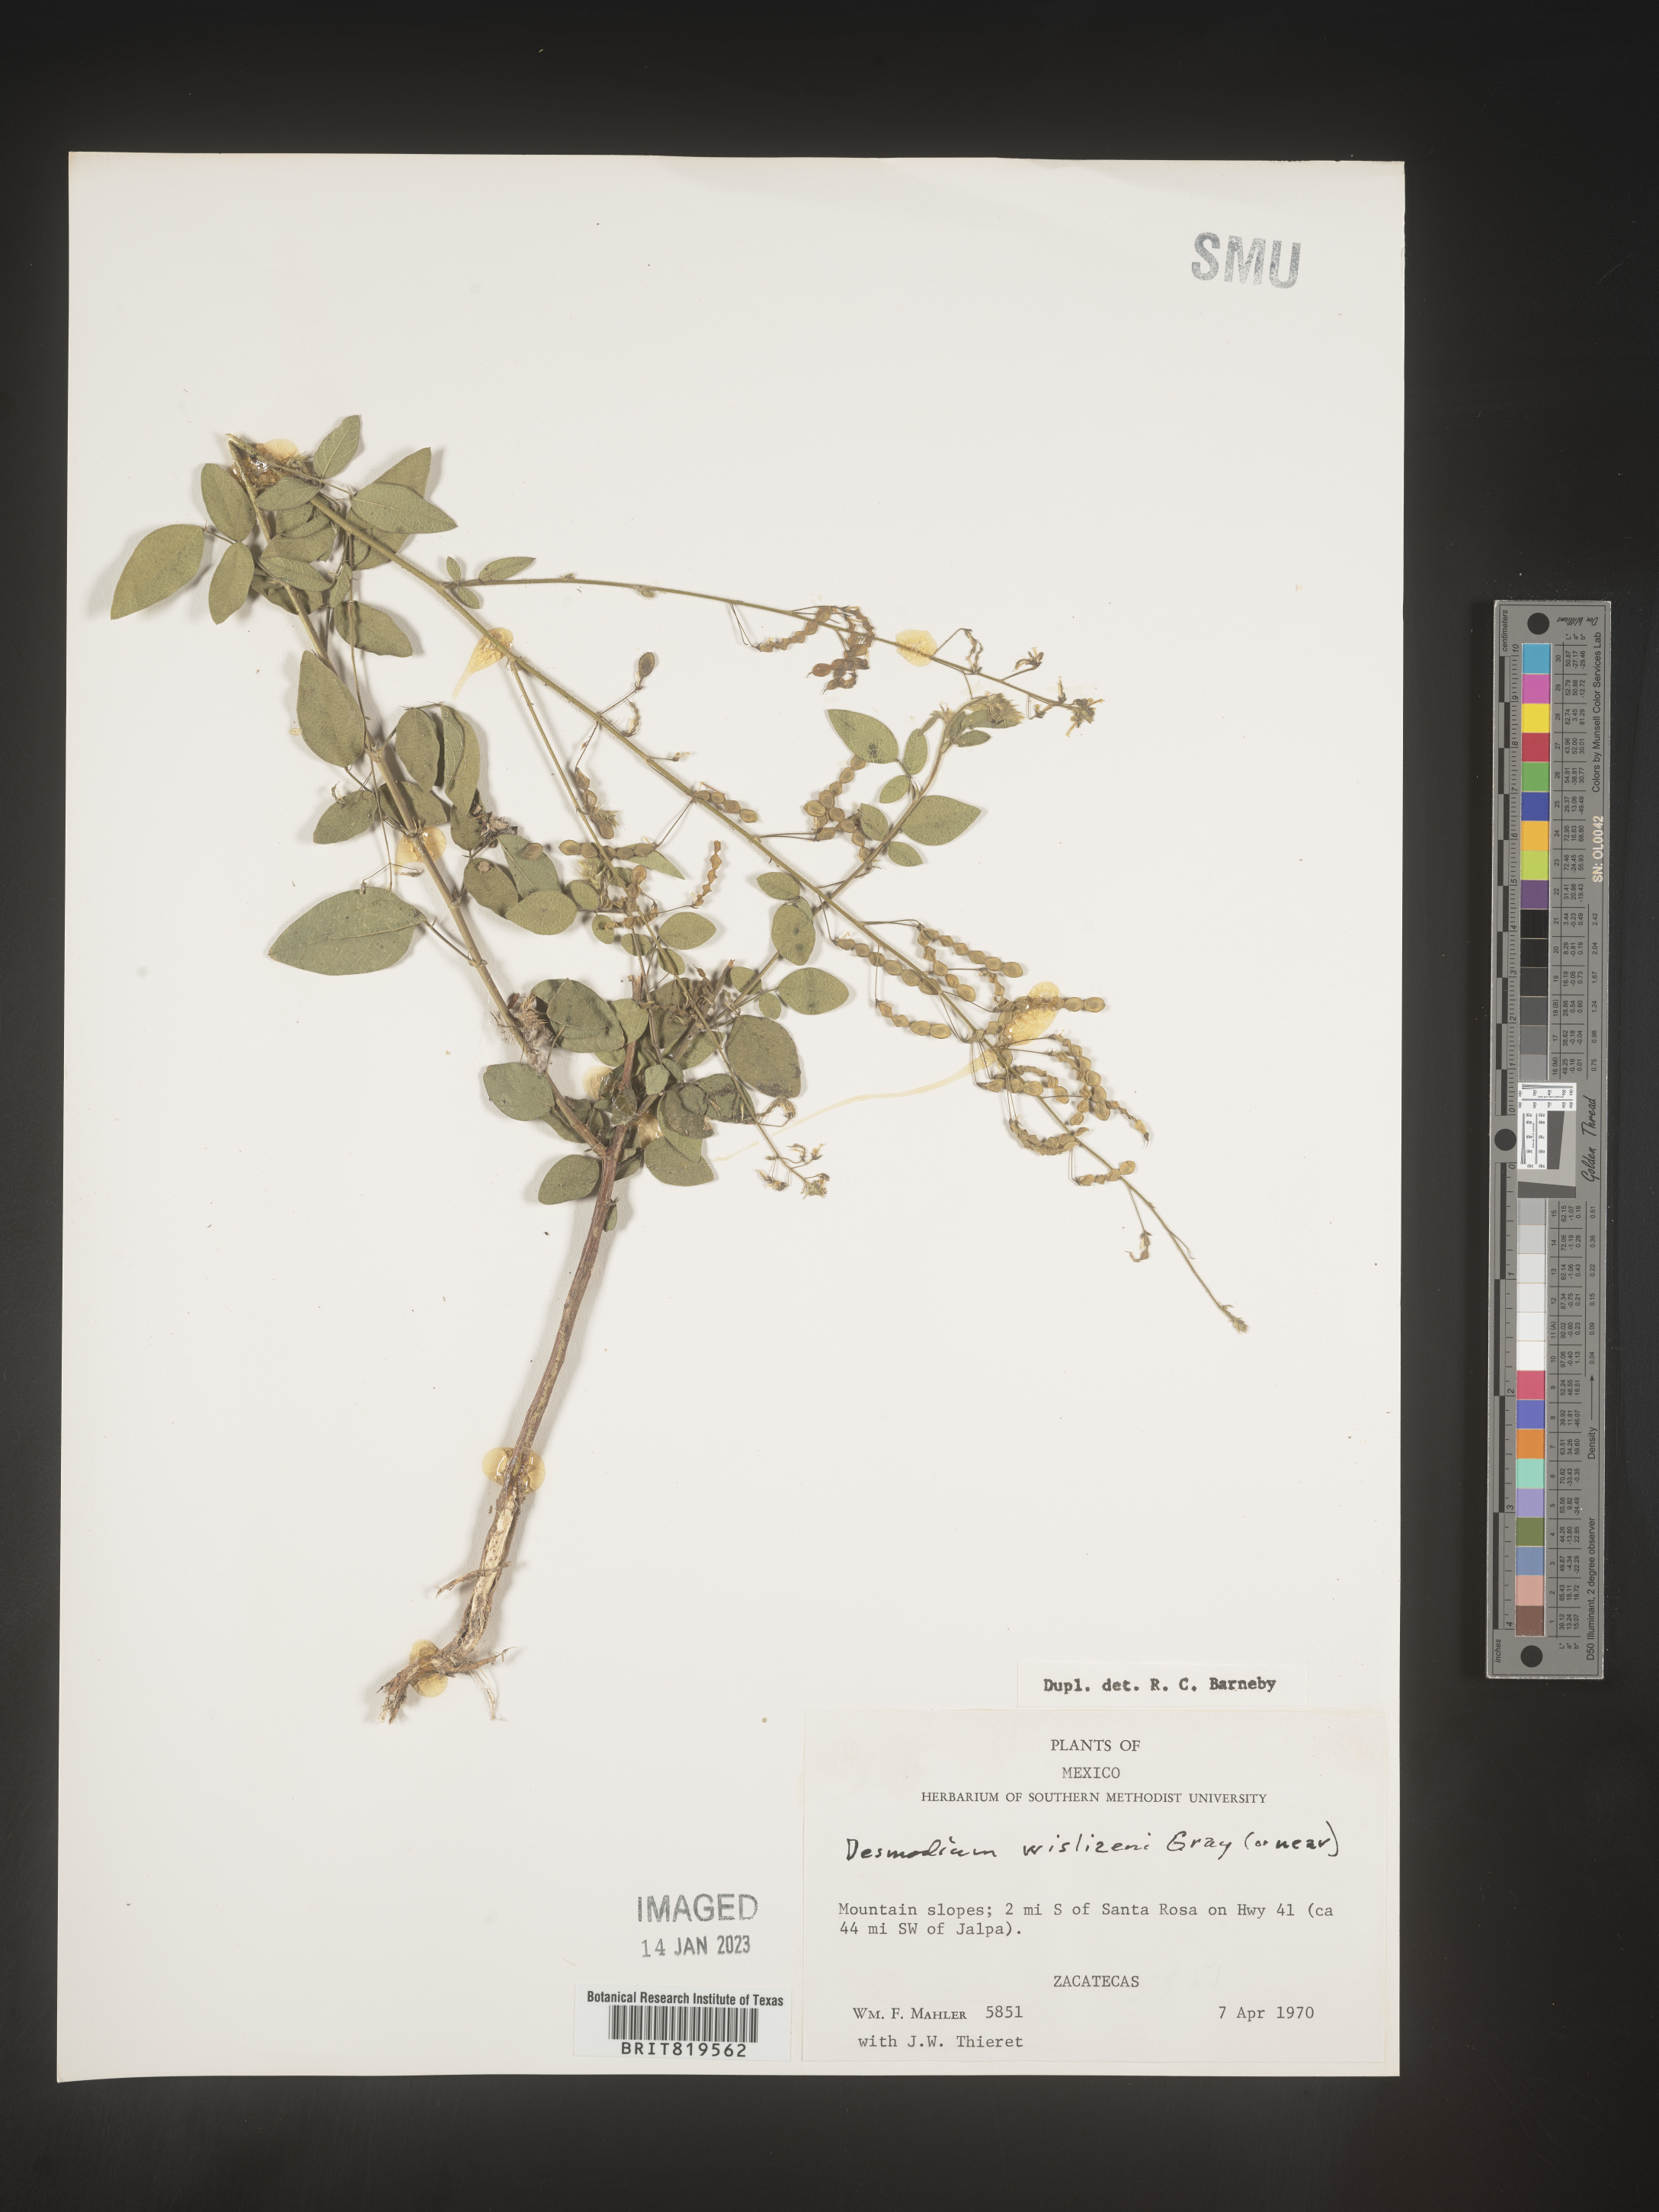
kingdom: Plantae
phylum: Tracheophyta
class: Magnoliopsida
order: Fabales
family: Fabaceae
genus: Desmodium
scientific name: Desmodium
